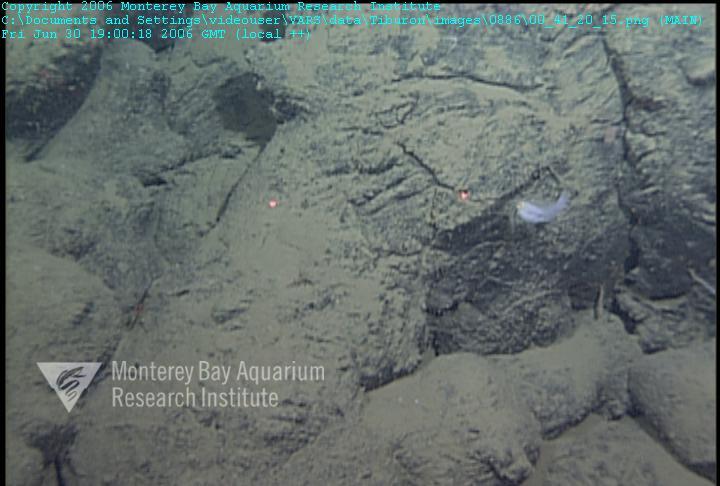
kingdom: Animalia
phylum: Porifera
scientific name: Porifera
